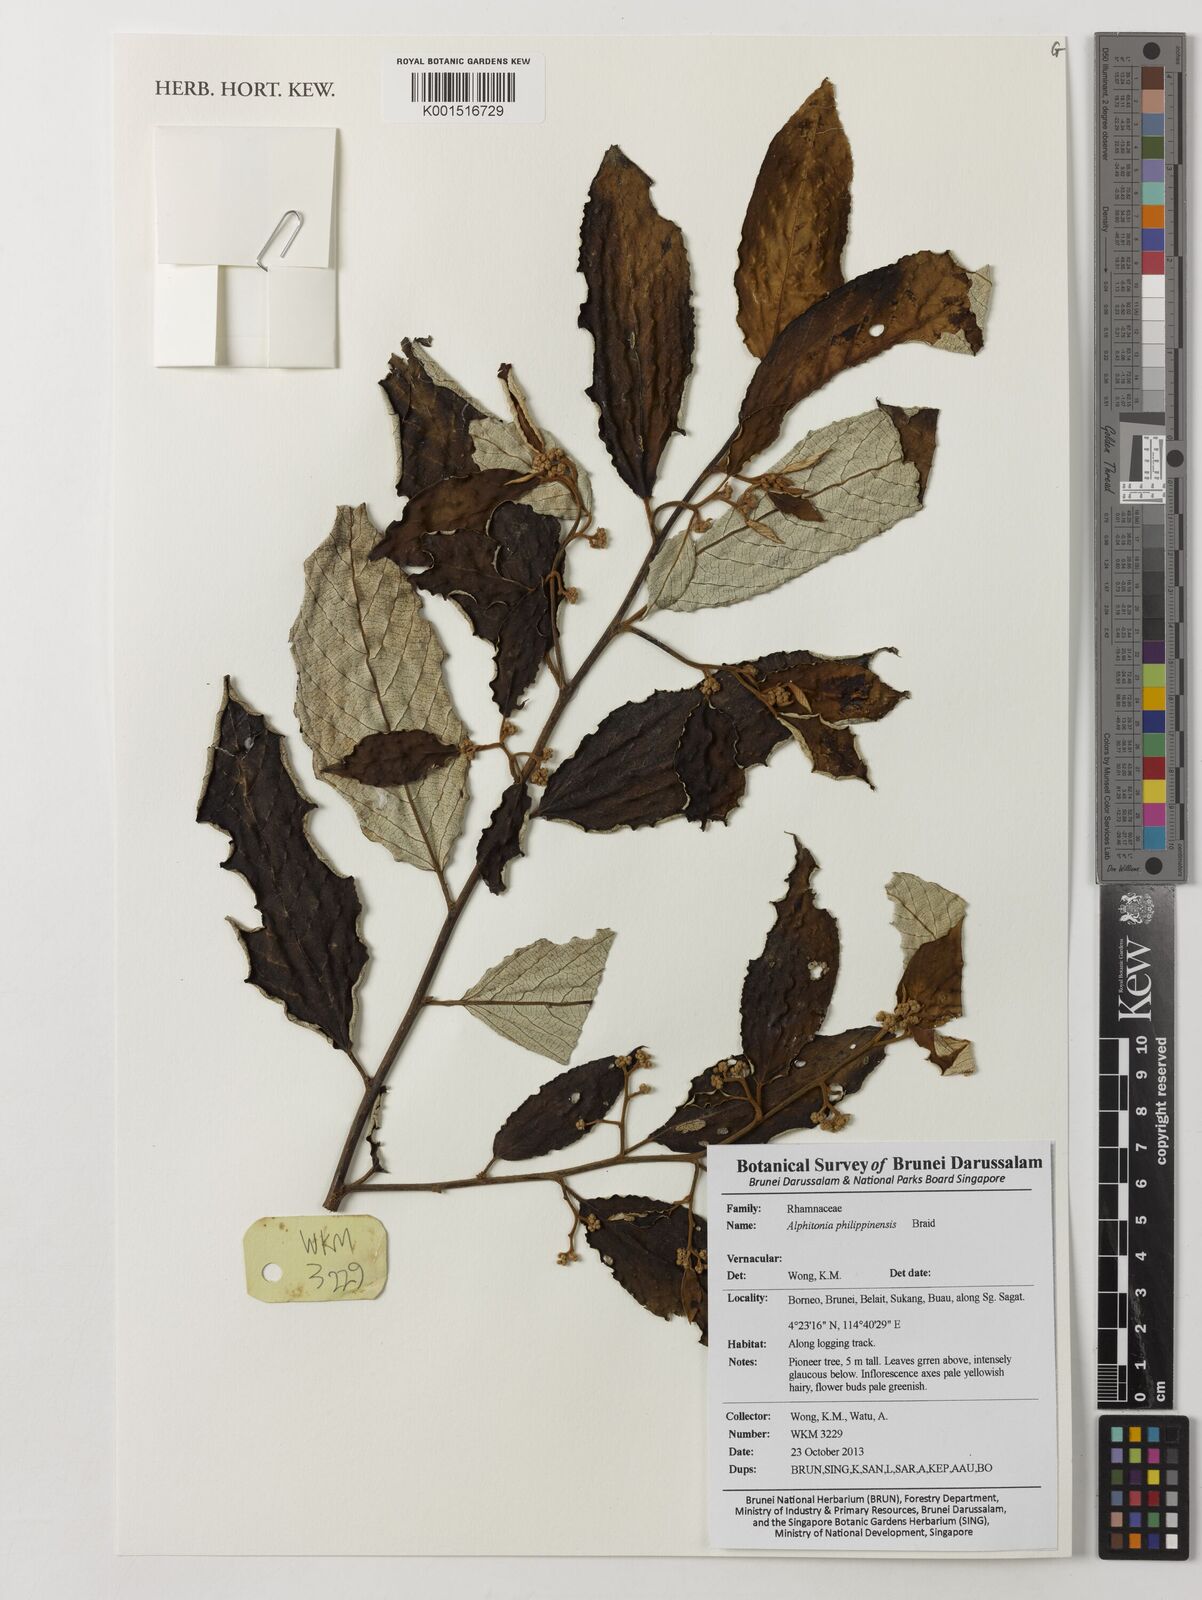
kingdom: Plantae
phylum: Tracheophyta
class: Magnoliopsida
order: Rosales
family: Rhamnaceae
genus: Alphitonia
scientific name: Alphitonia incana
